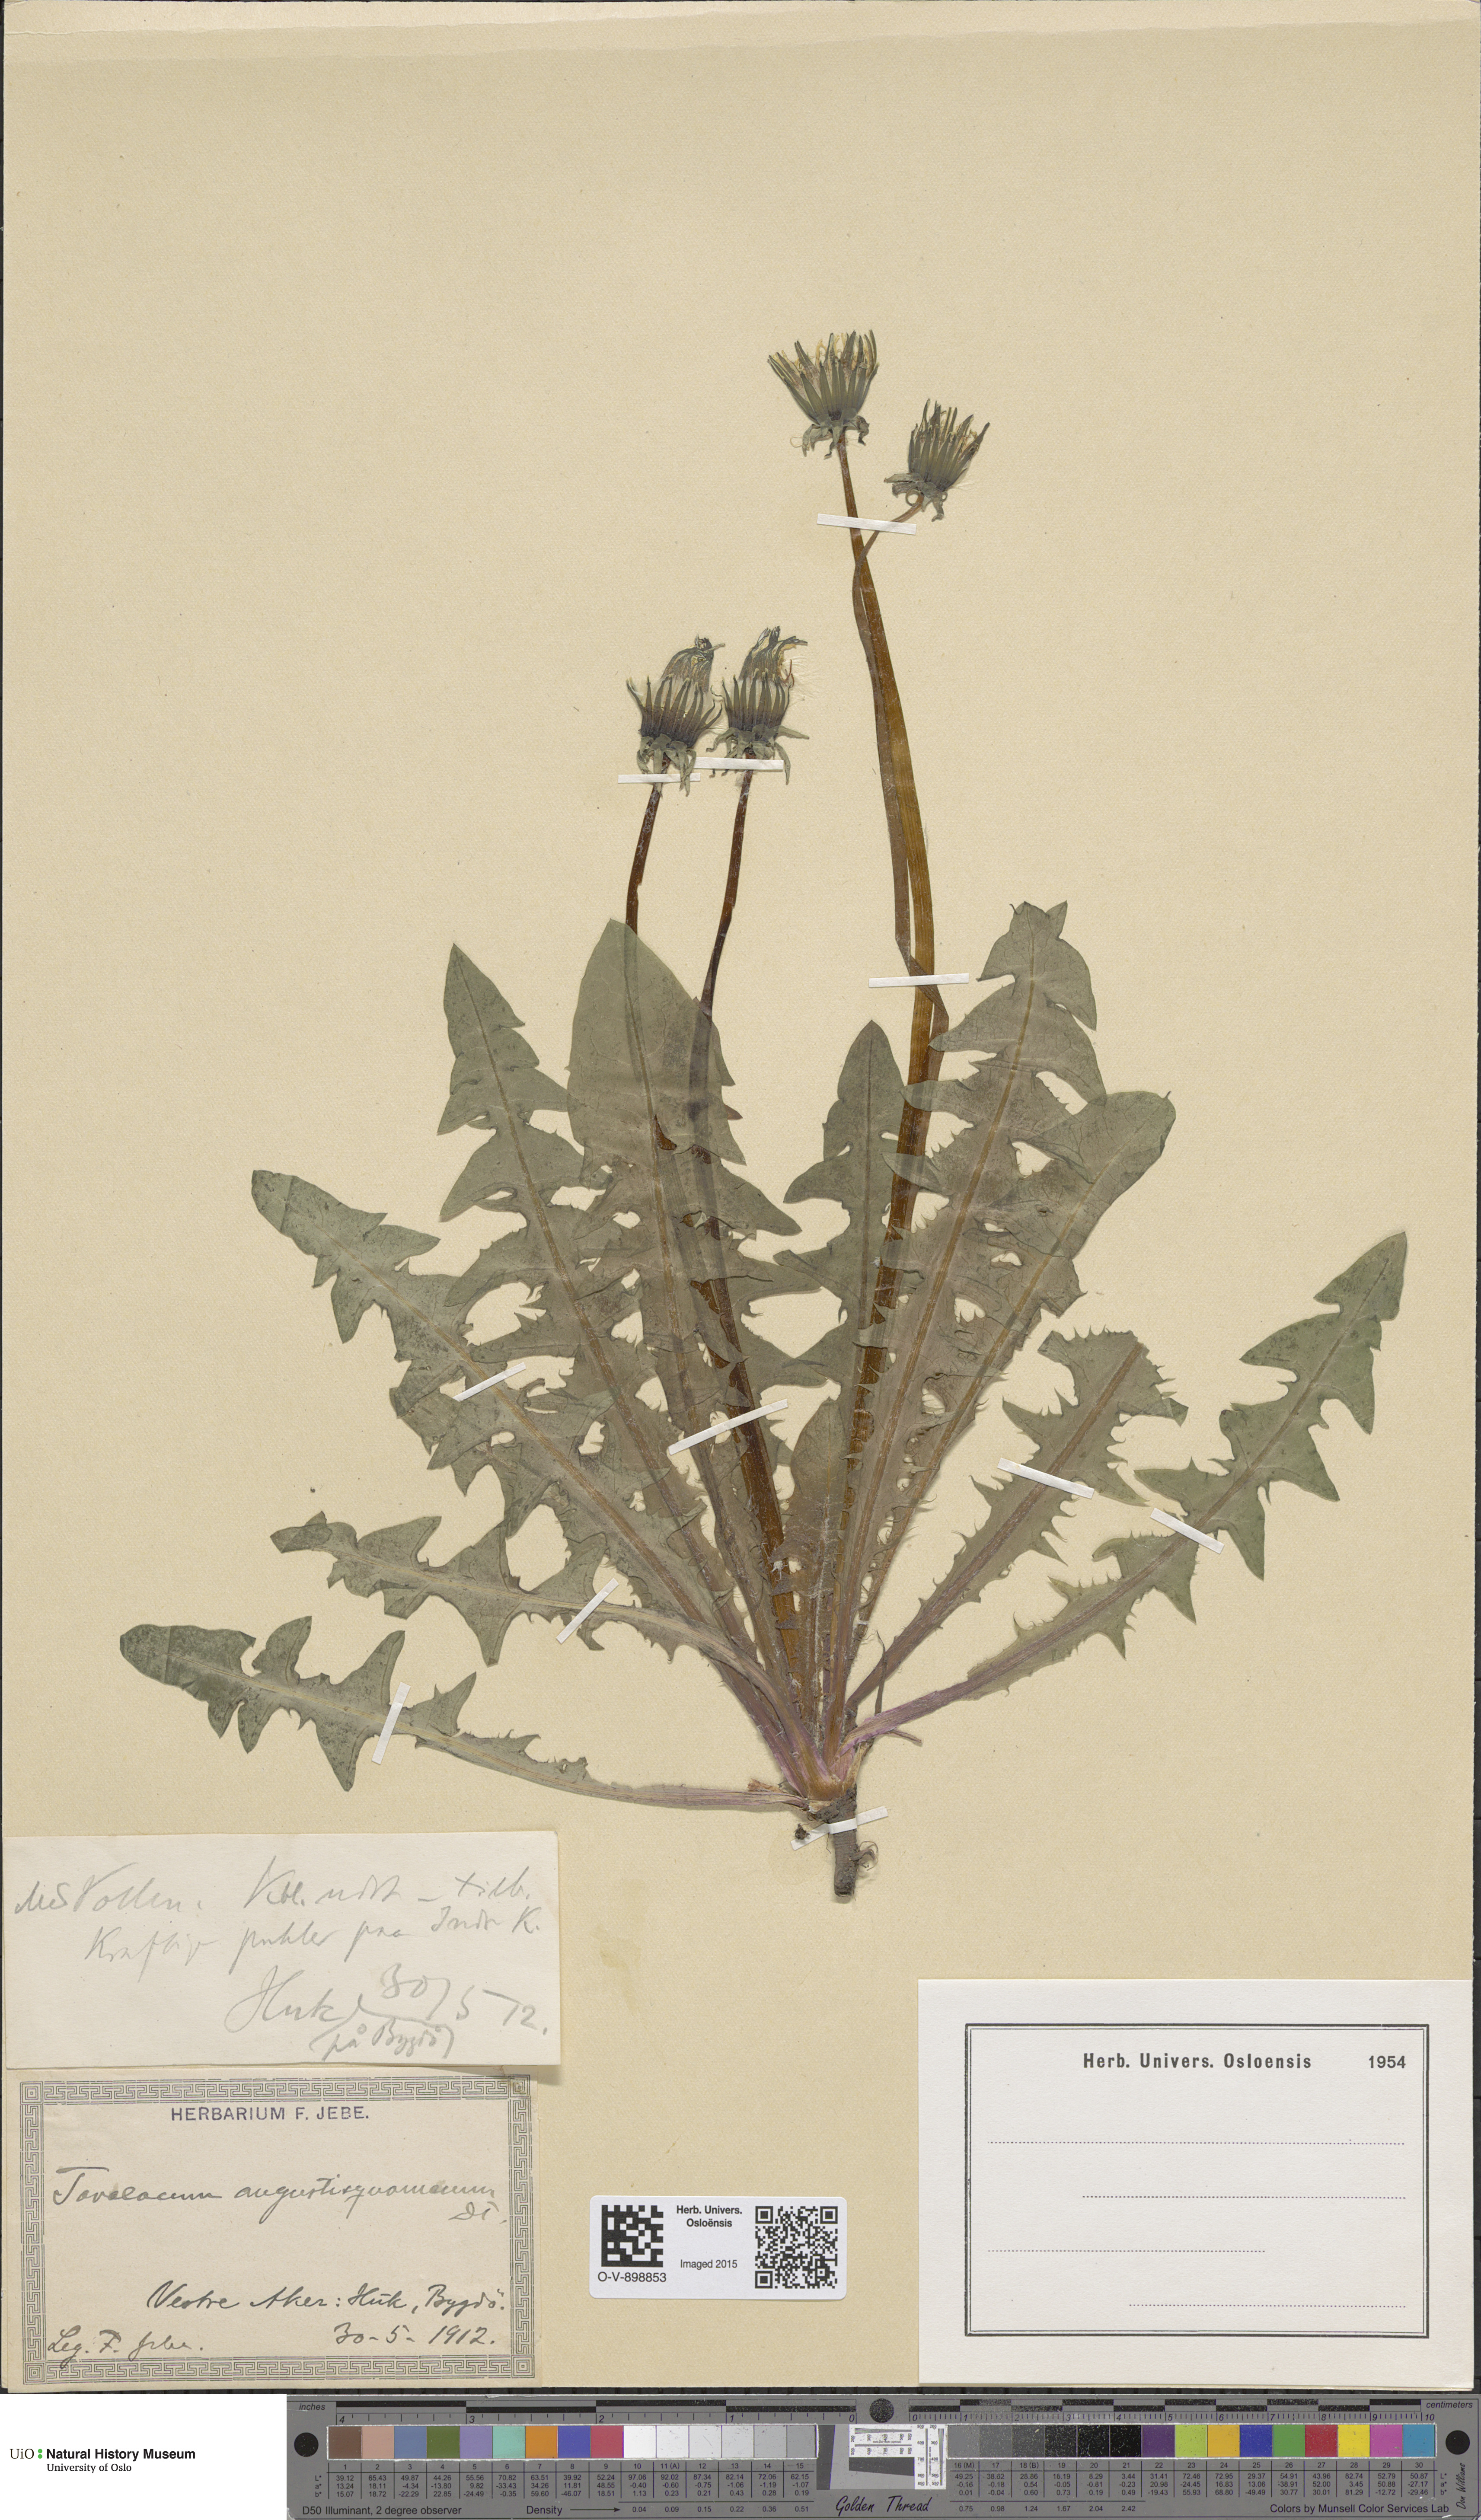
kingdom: Plantae
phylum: Tracheophyta
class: Magnoliopsida
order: Asterales
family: Asteraceae
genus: Taraxacum
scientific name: Taraxacum angustisquameum
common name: Multilobed dandelion
